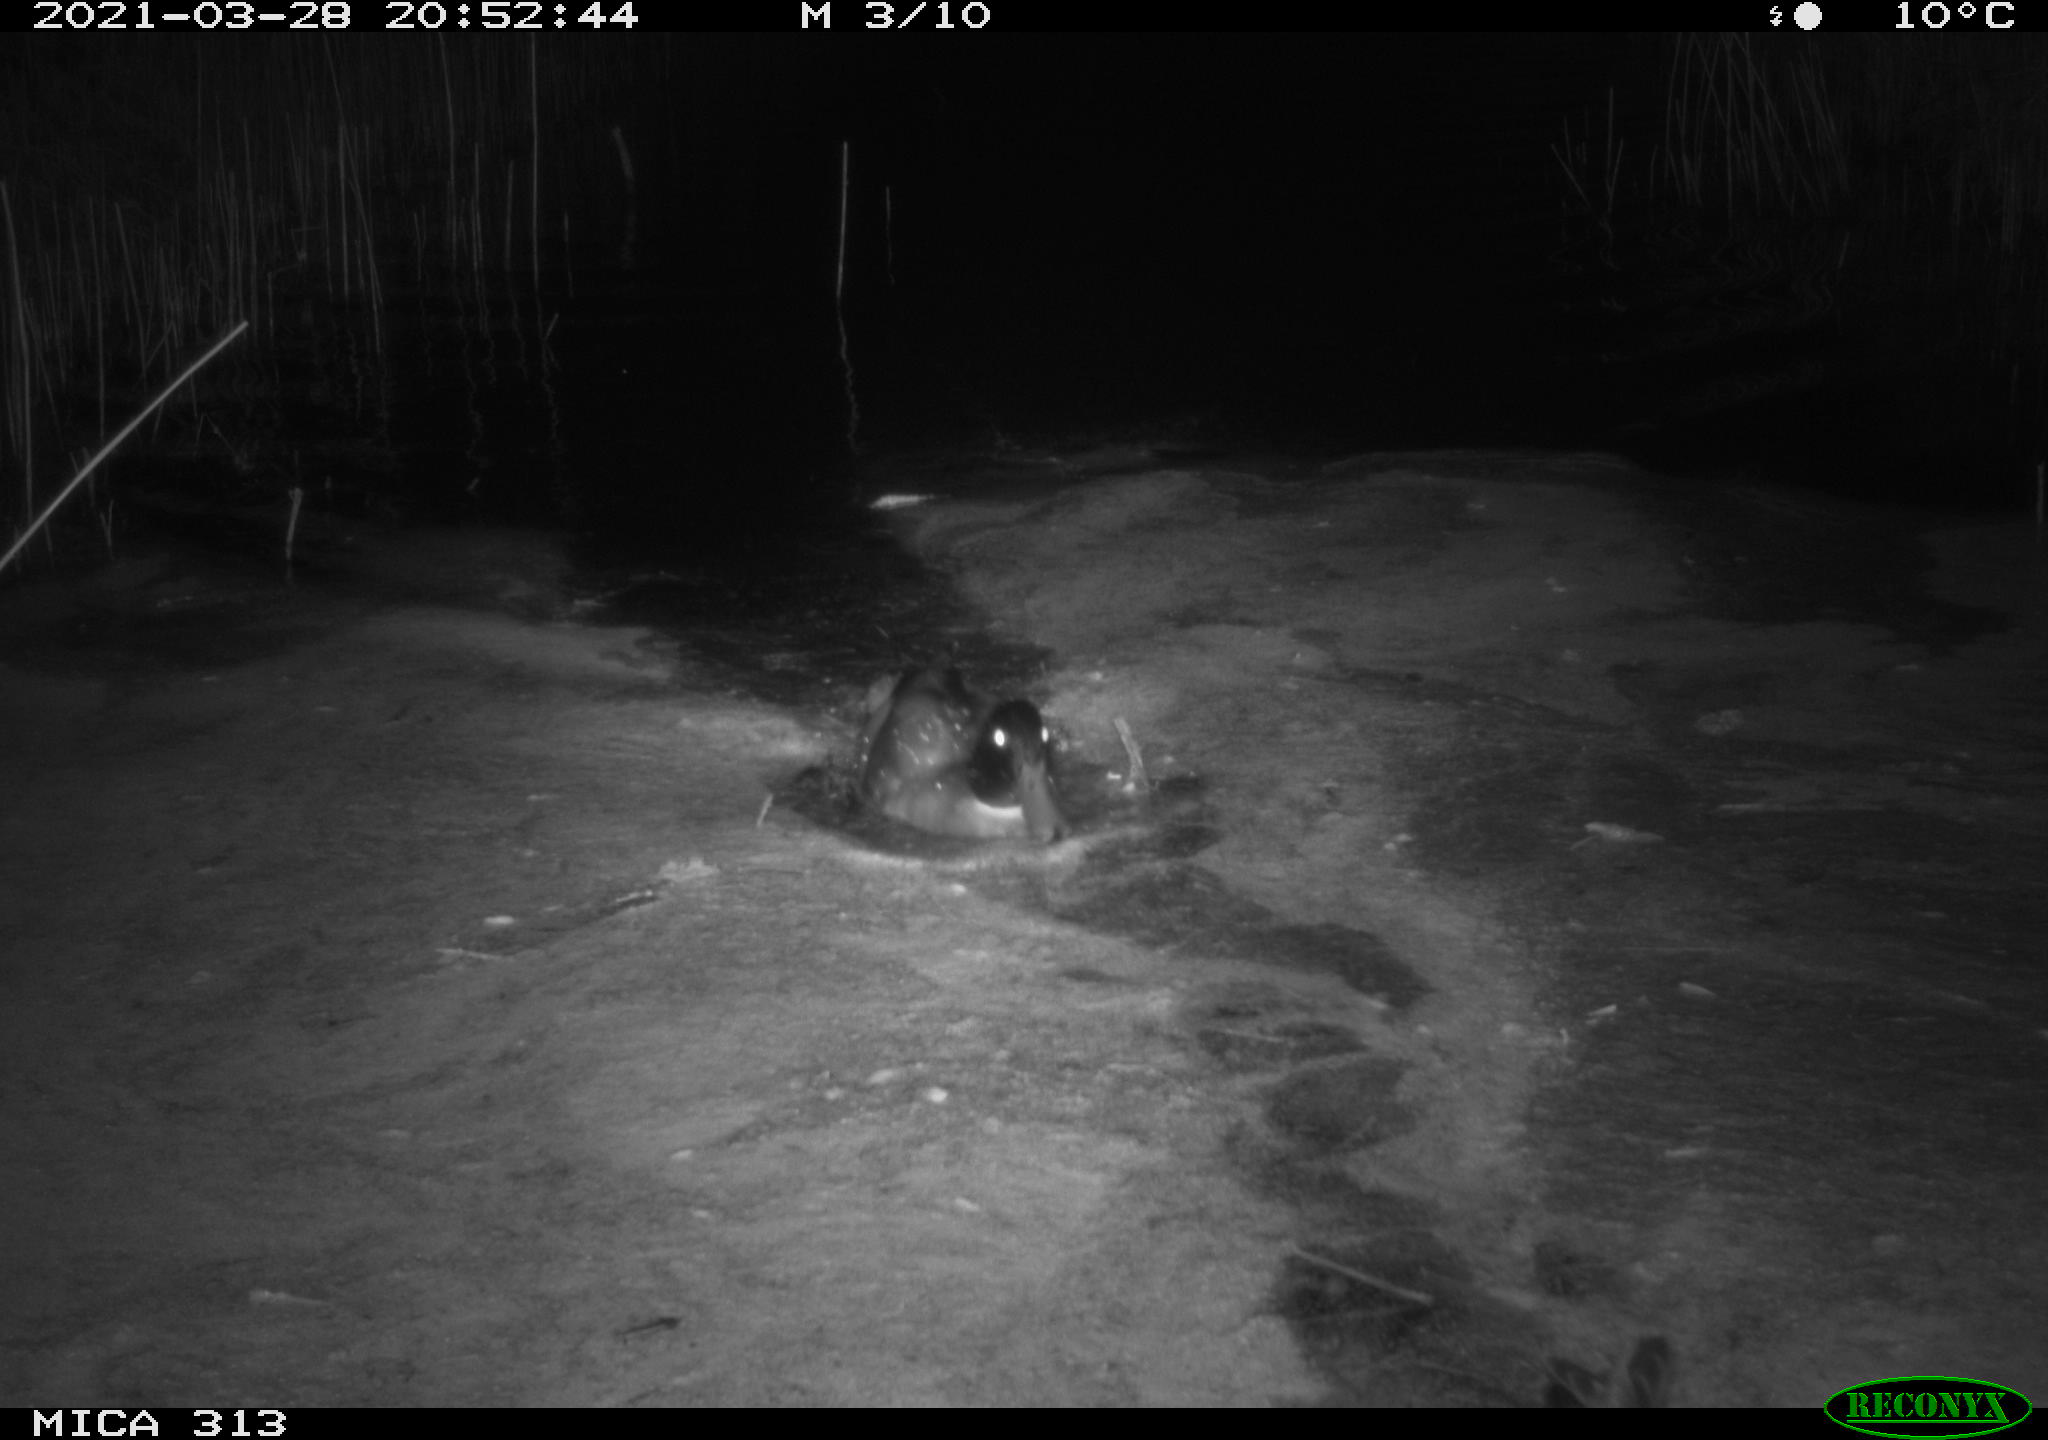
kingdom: Animalia
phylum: Chordata
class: Aves
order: Anseriformes
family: Anatidae
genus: Anas
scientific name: Anas platyrhynchos
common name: Mallard
